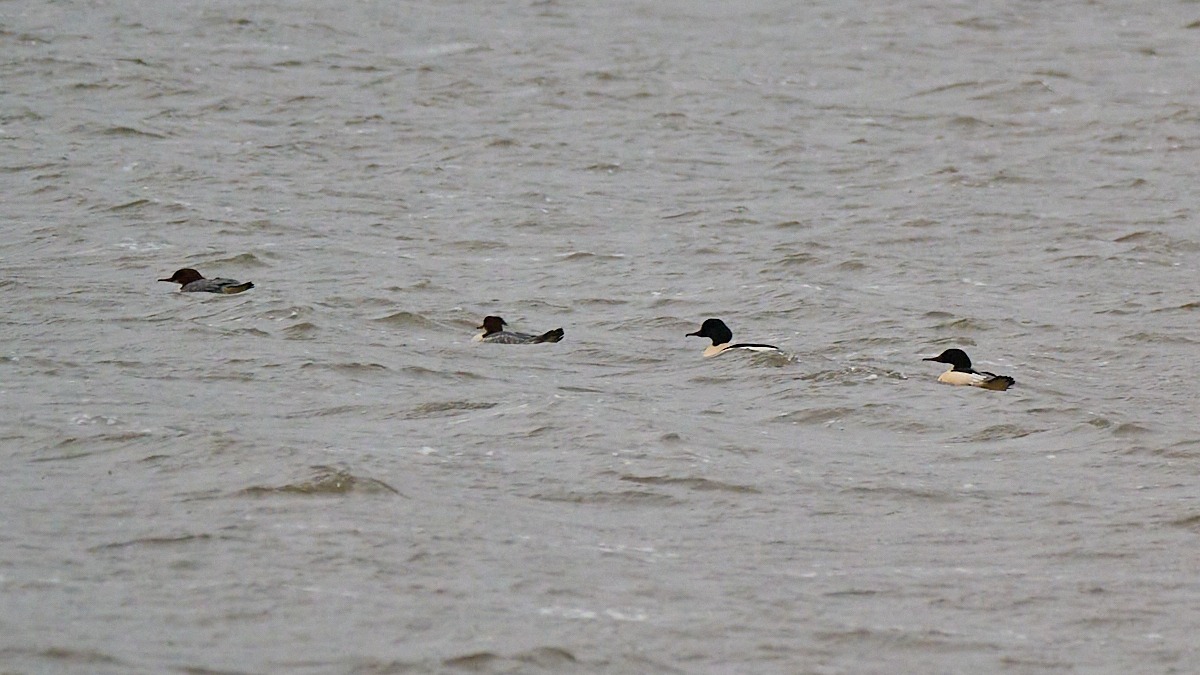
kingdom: Animalia
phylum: Chordata
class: Aves
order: Anseriformes
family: Anatidae
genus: Mergus
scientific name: Mergus merganser
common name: Stor skallesluger
